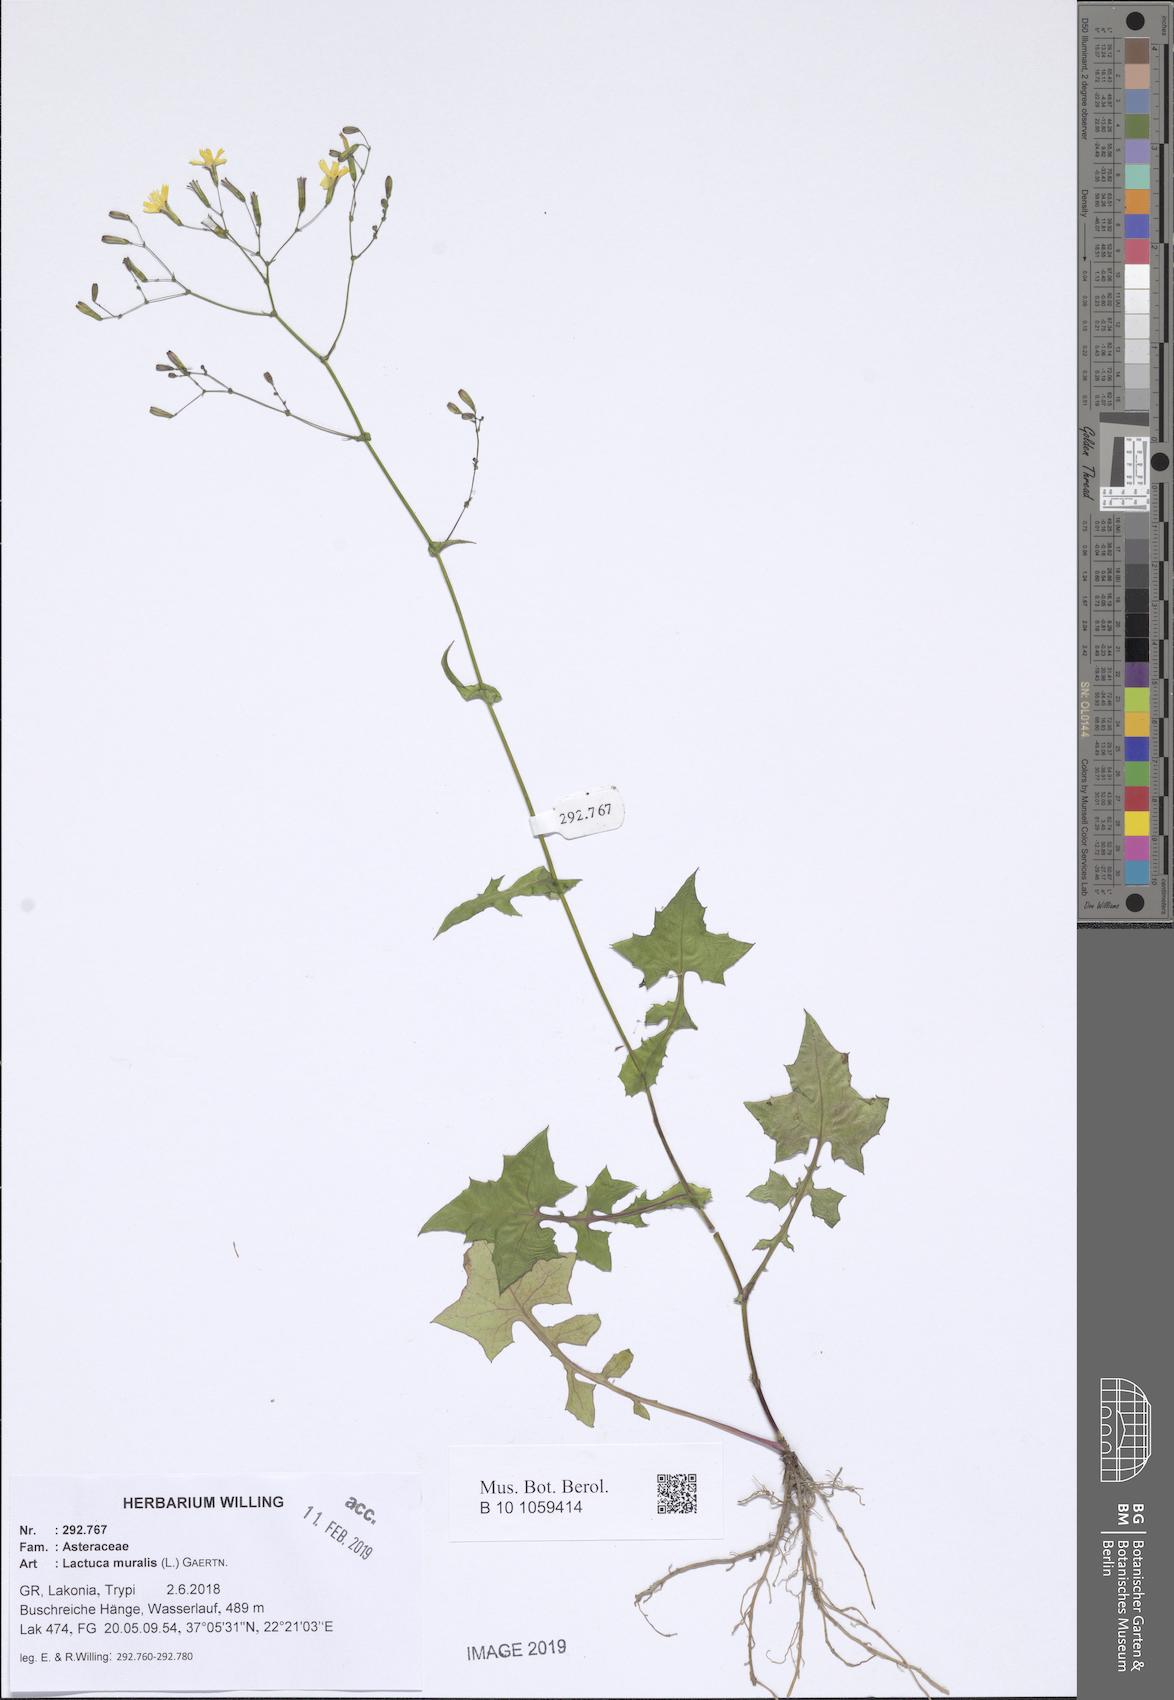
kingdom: Plantae
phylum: Tracheophyta
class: Magnoliopsida
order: Asterales
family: Asteraceae
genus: Mycelis
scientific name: Mycelis muralis
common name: Wall lettuce
